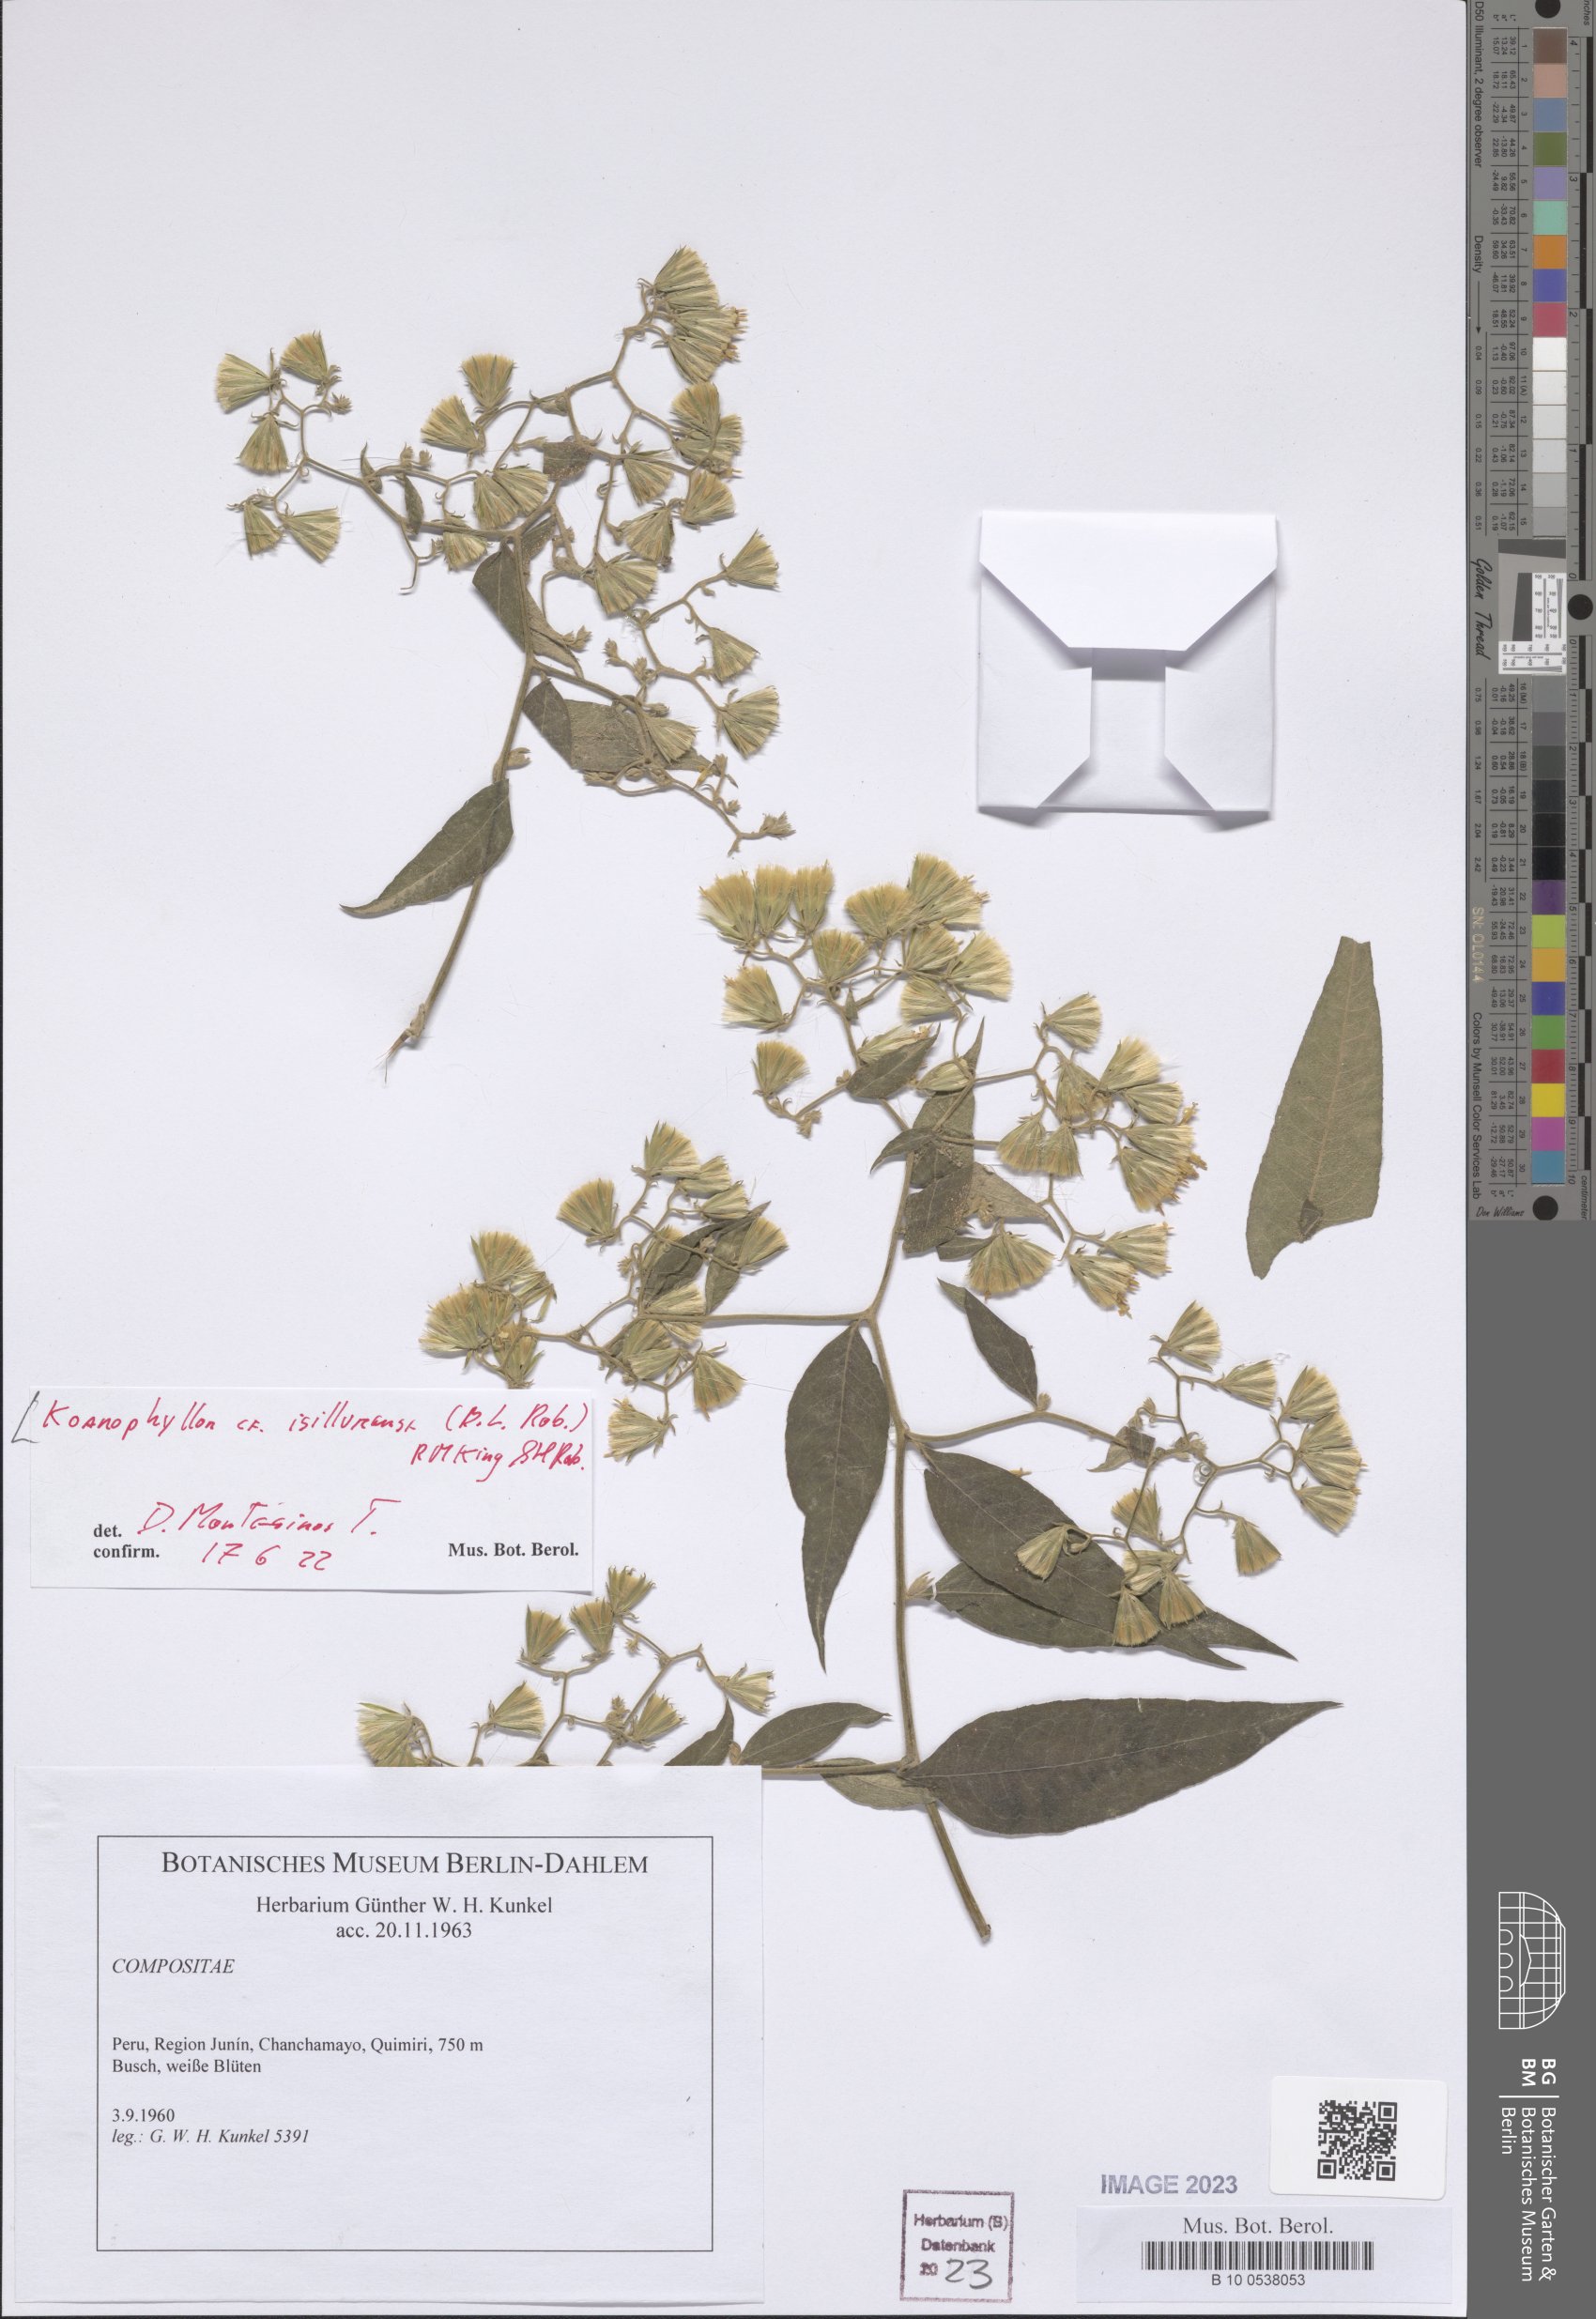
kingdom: Plantae
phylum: Tracheophyta
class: Magnoliopsida
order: Asterales
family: Asteraceae
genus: Koanophyllon
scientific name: Koanophyllon isillumense
